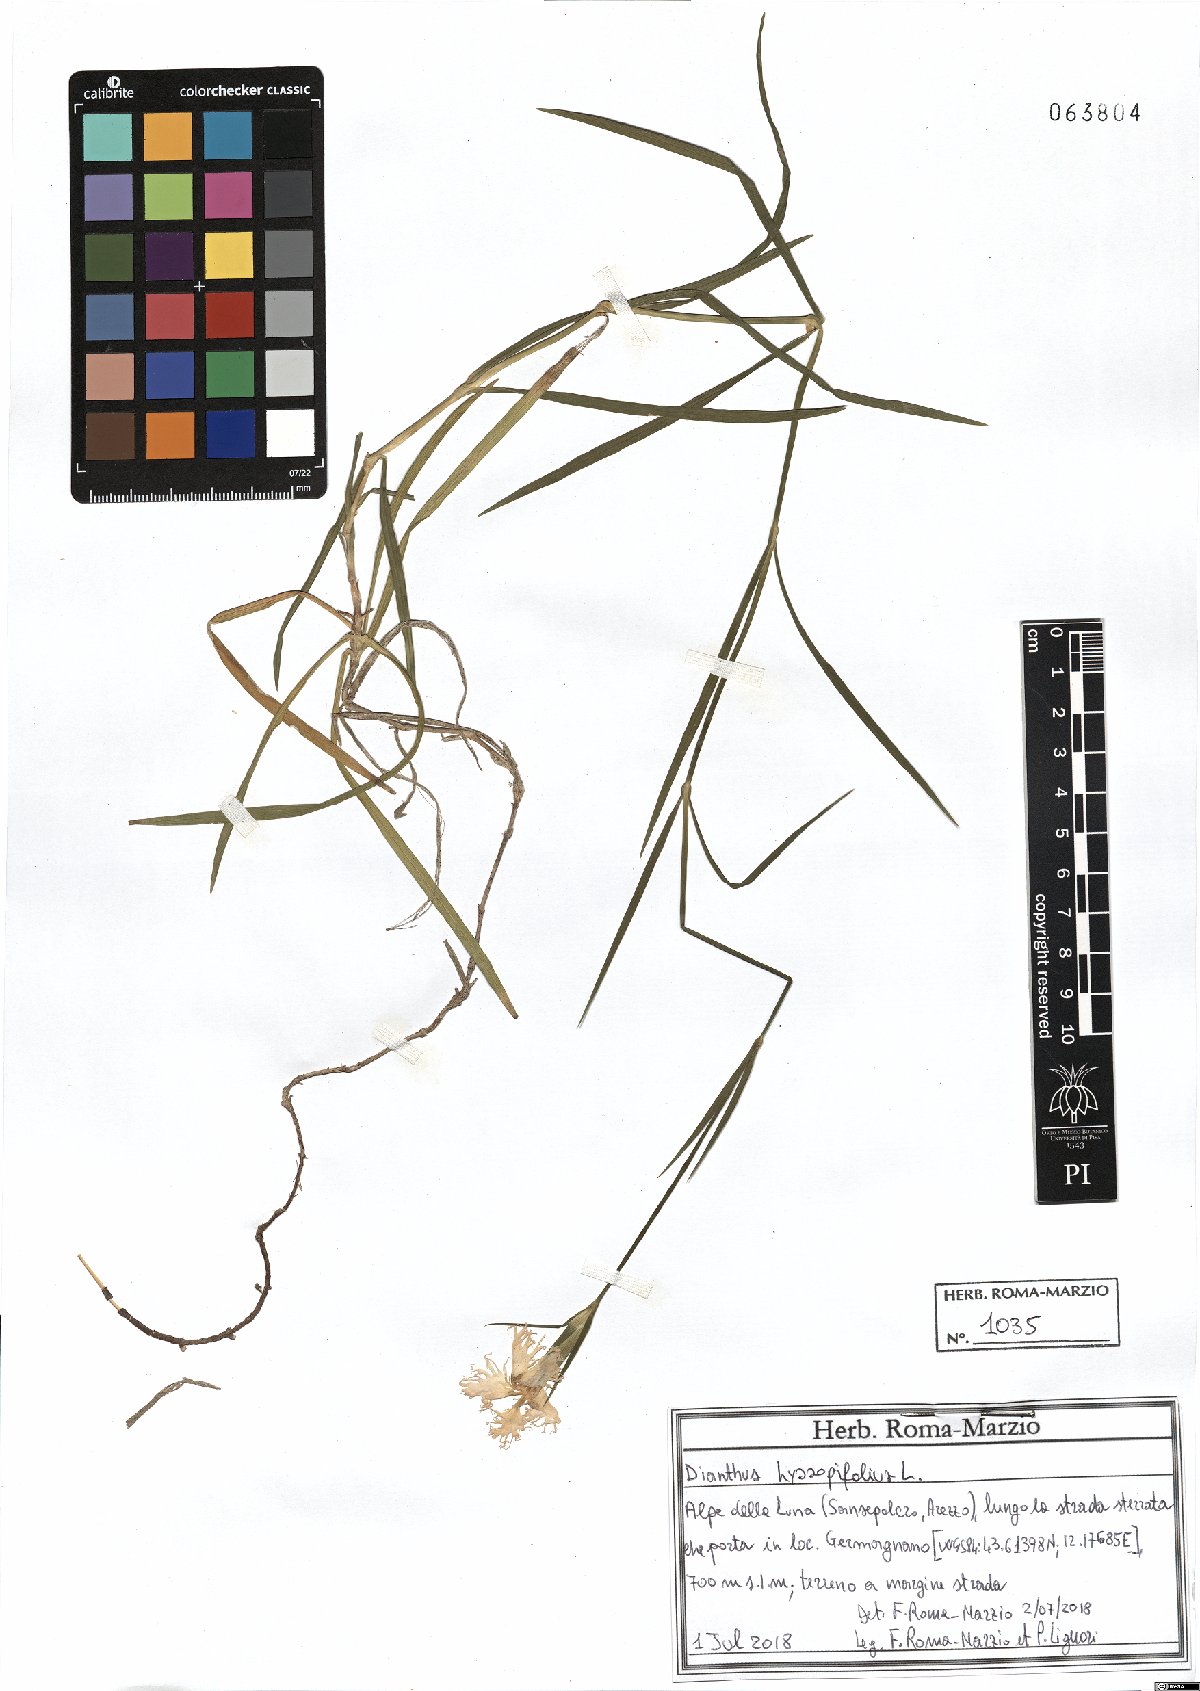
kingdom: Plantae
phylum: Tracheophyta
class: Magnoliopsida
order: Caryophyllales
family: Caryophyllaceae
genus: Dianthus
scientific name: Dianthus hyssopifolius
